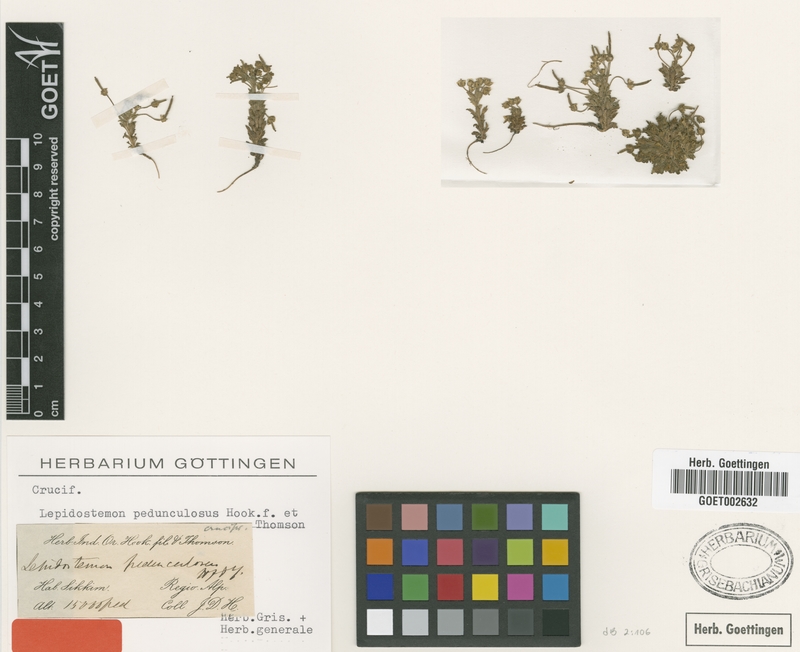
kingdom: Plantae
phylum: Tracheophyta
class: Magnoliopsida
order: Brassicales
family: Brassicaceae
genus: Lepidostemon
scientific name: Lepidostemon pedunculosus
